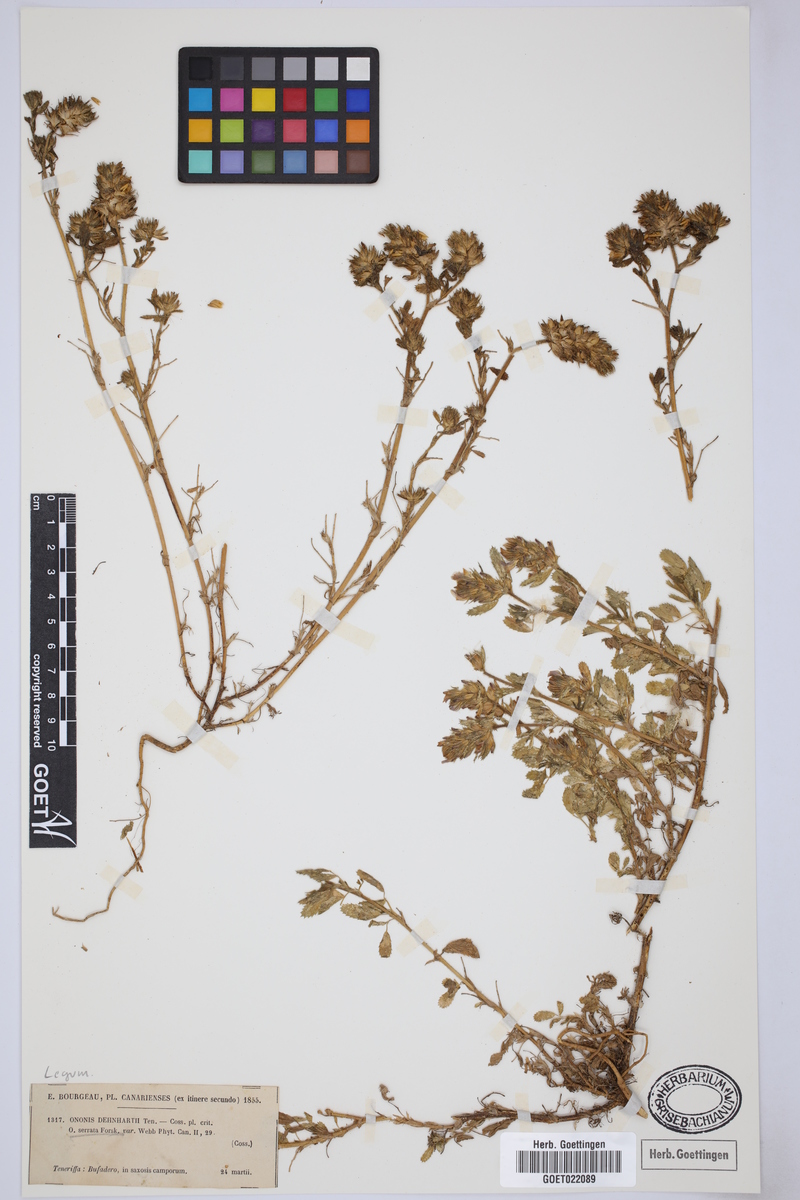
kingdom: Plantae
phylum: Tracheophyta
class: Magnoliopsida
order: Fabales
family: Fabaceae
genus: Ononis
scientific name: Ononis serrata
